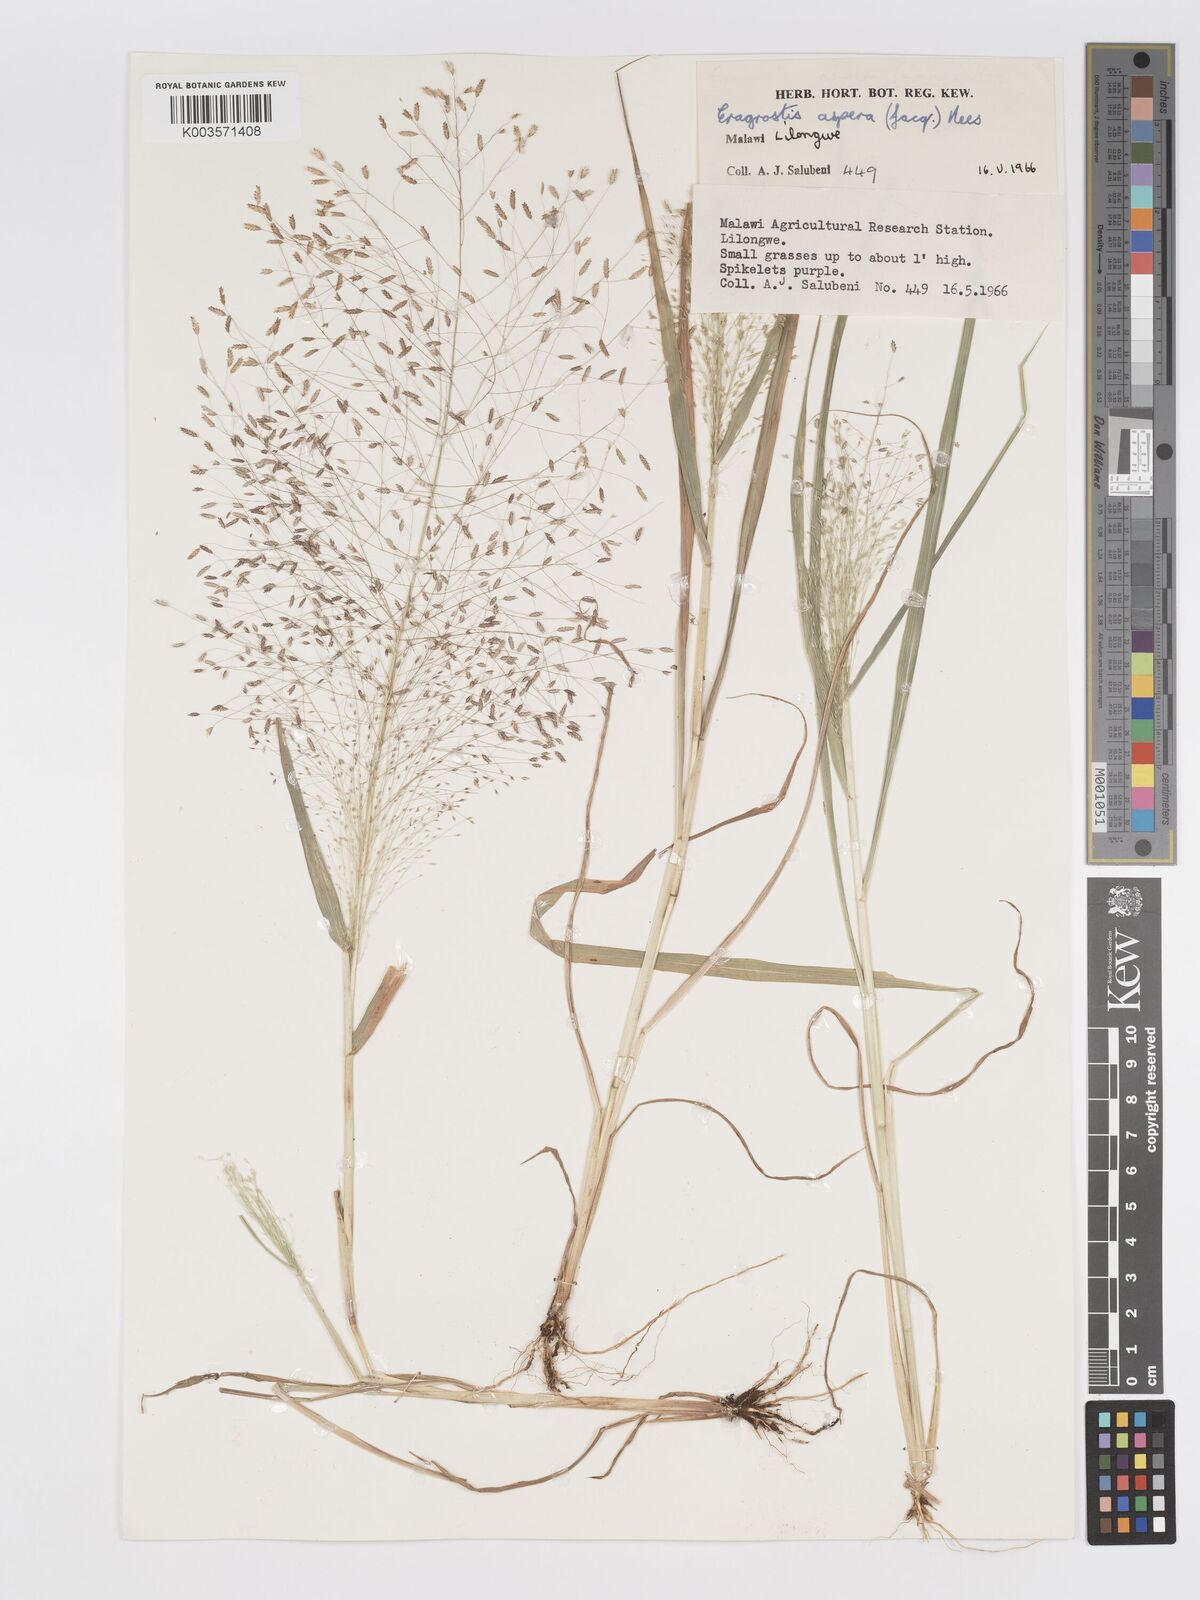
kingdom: Plantae
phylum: Tracheophyta
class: Liliopsida
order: Poales
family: Poaceae
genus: Eragrostis
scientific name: Eragrostis aspera
